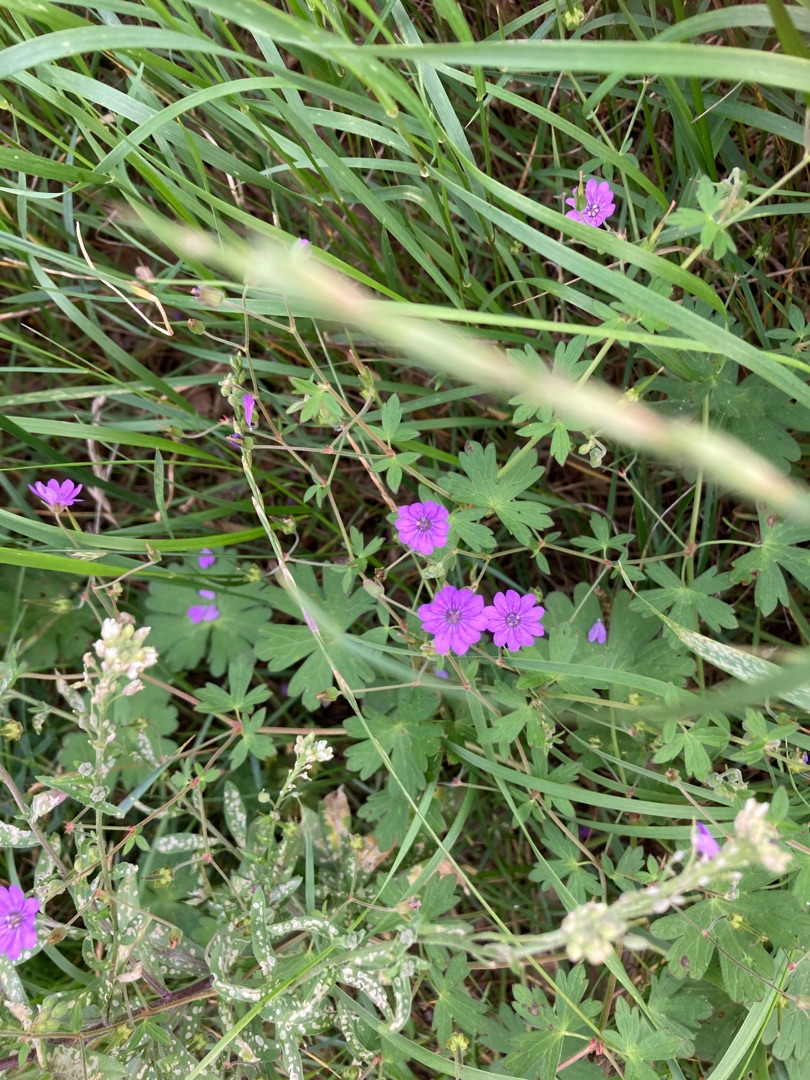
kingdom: Plantae
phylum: Tracheophyta
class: Magnoliopsida
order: Geraniales
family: Geraniaceae
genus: Geranium
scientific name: Geranium pyrenaicum
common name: Pyrenæisk storkenæb
